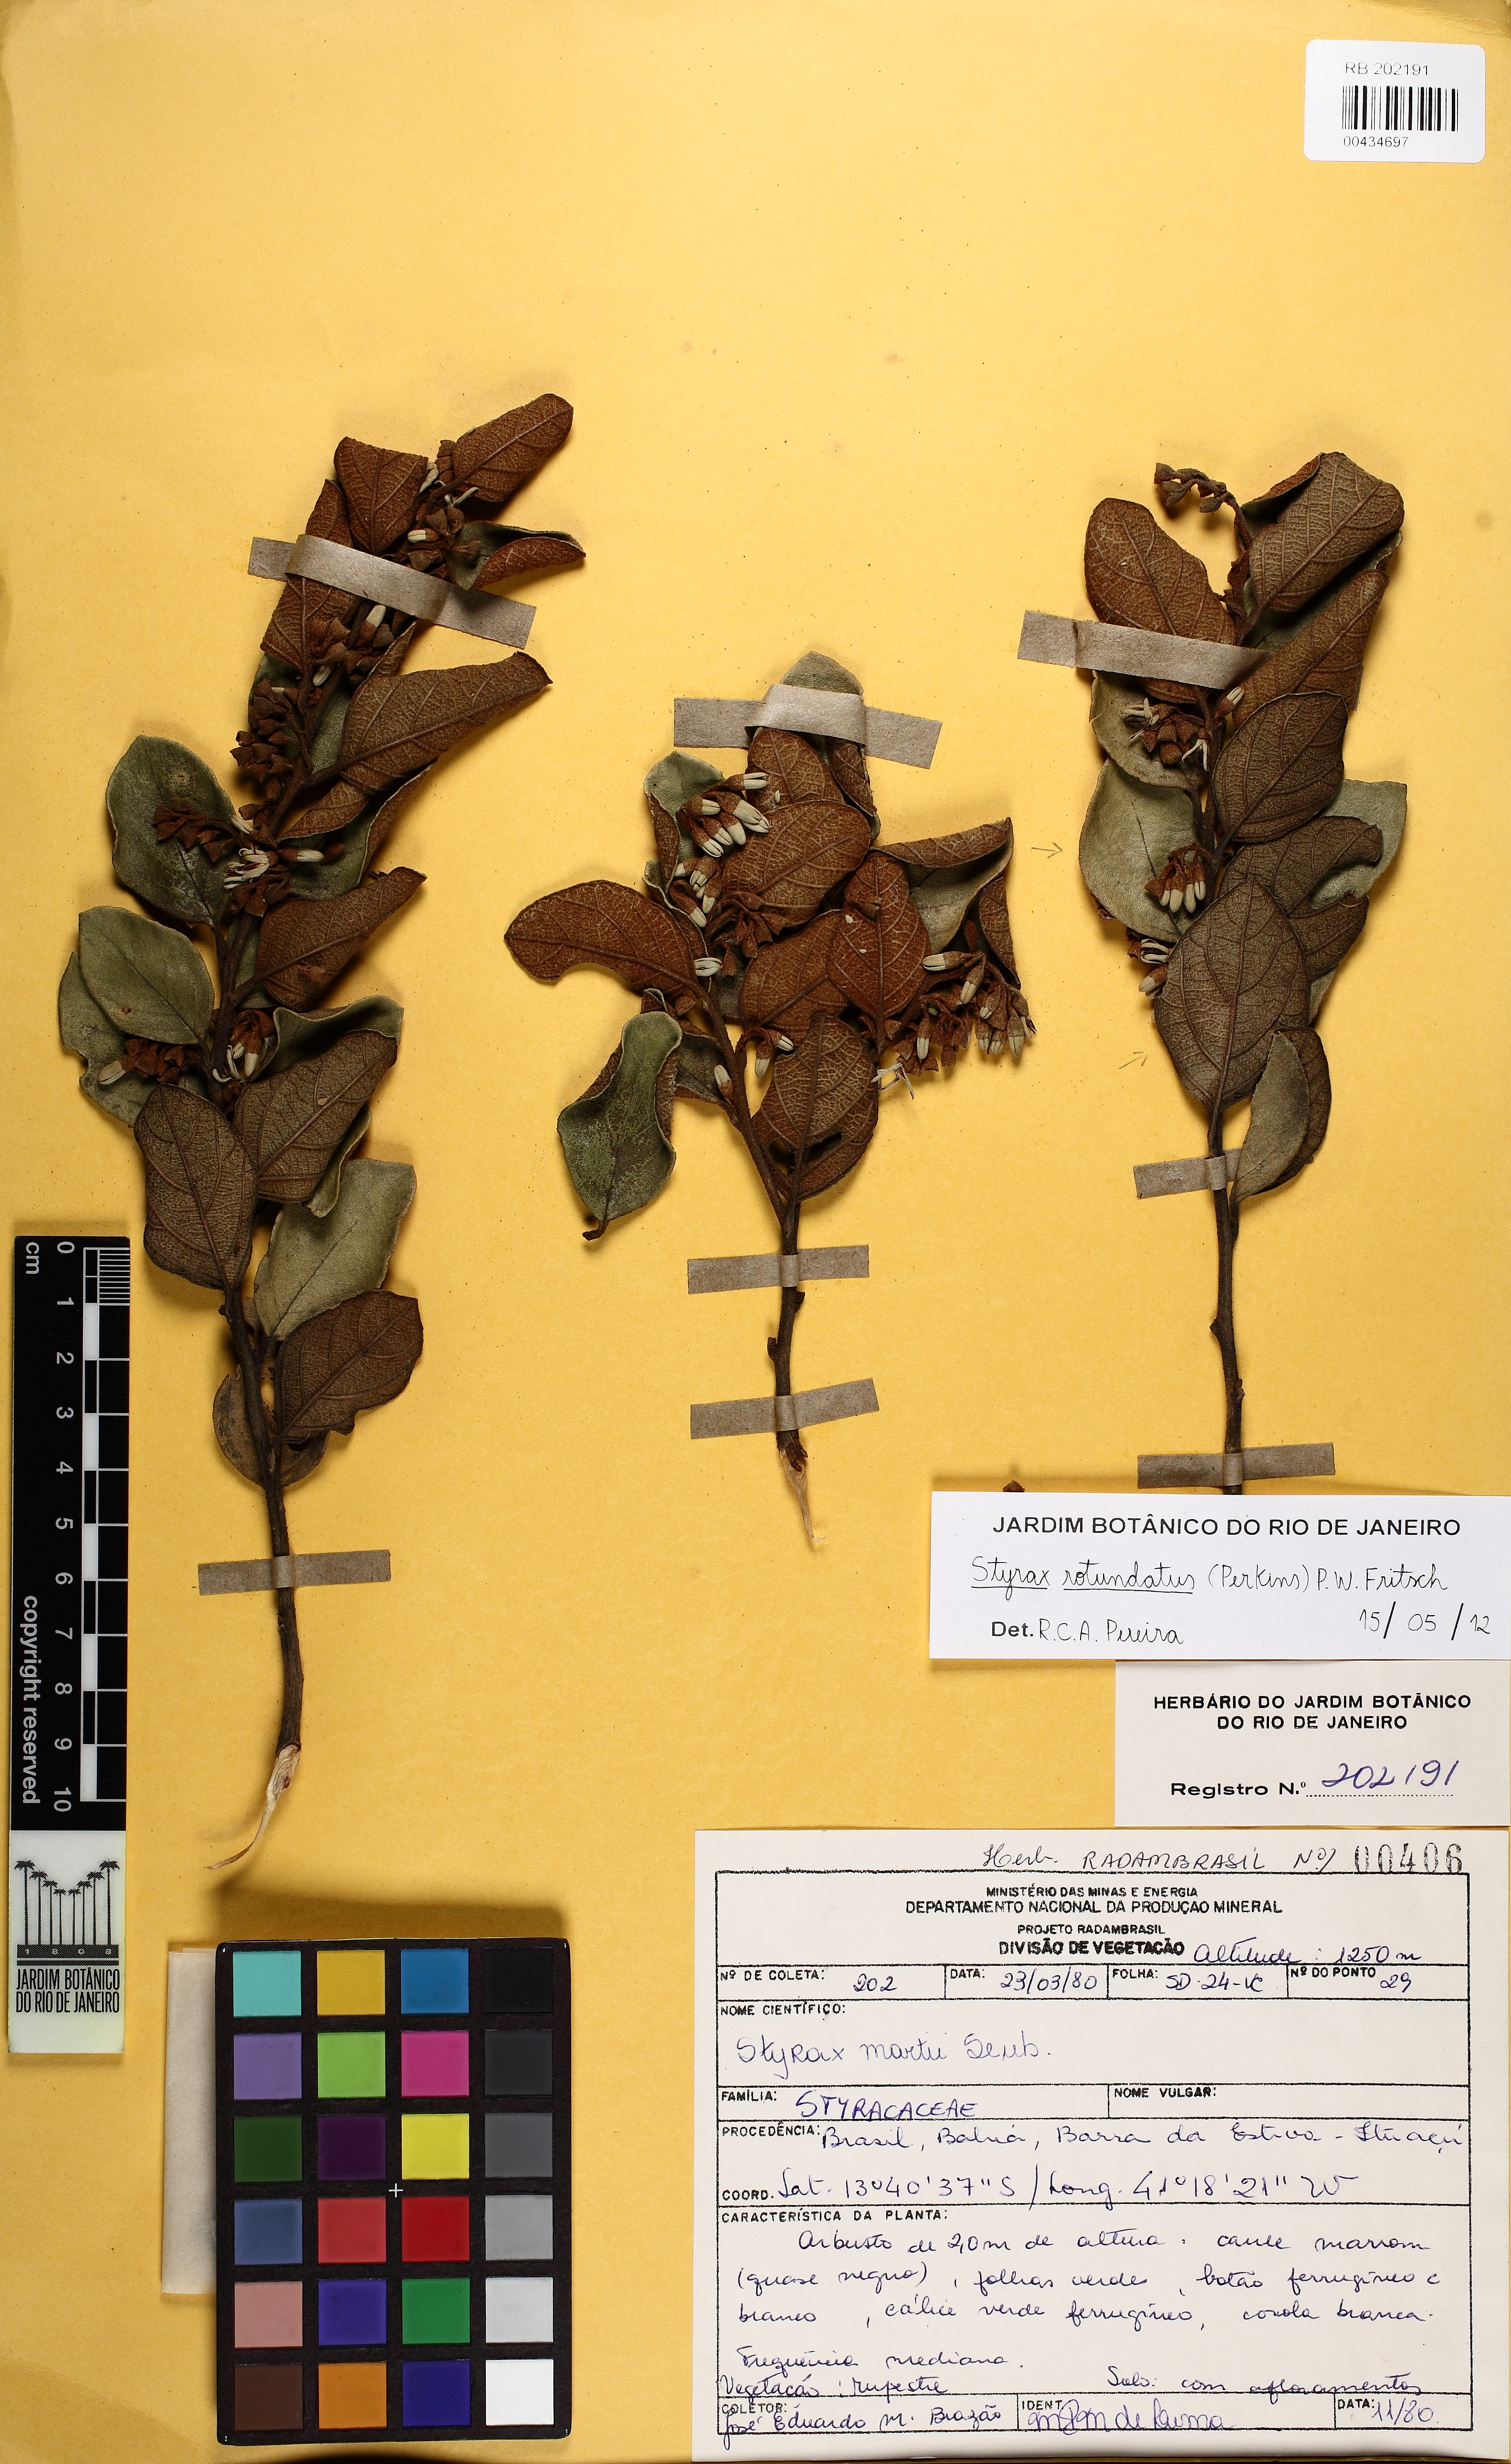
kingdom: Plantae
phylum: Tracheophyta
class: Magnoliopsida
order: Ericales
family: Styracaceae
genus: Styrax
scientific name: Styrax martii
